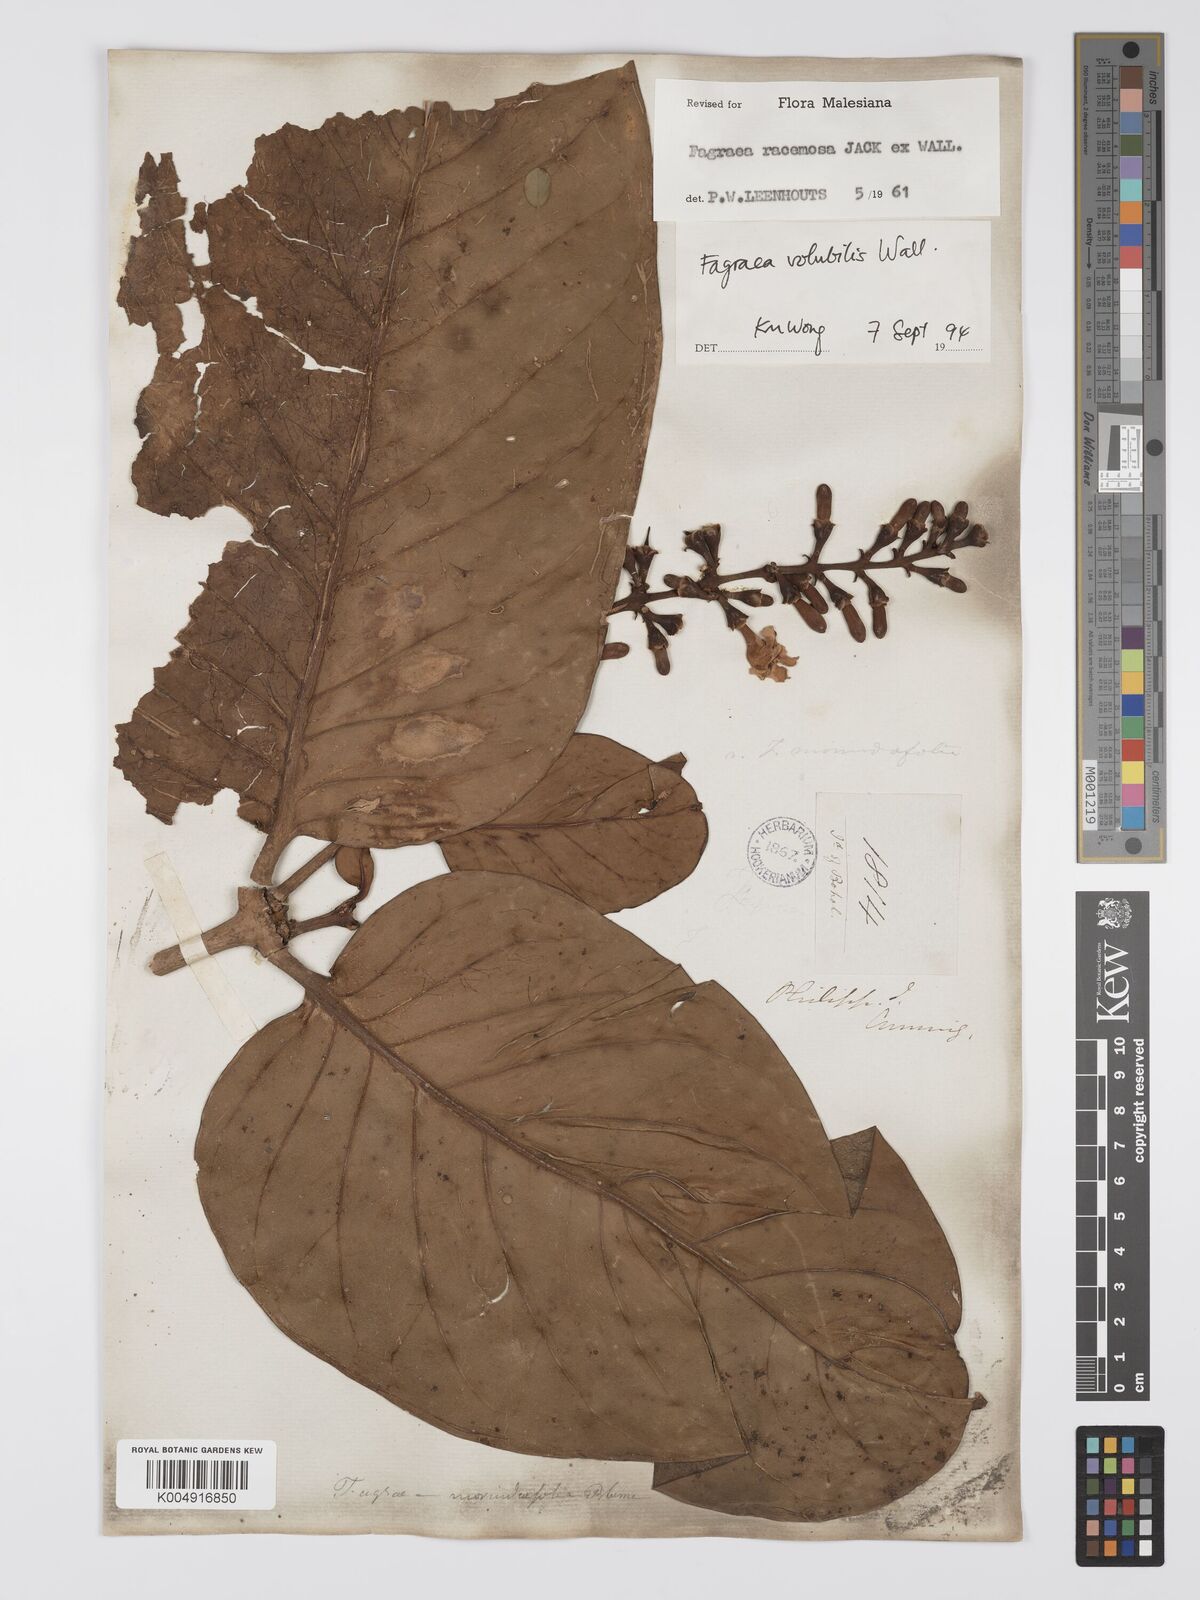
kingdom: Plantae
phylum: Tracheophyta
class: Magnoliopsida
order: Gentianales
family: Gentianaceae
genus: Utania
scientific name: Utania racemosa
